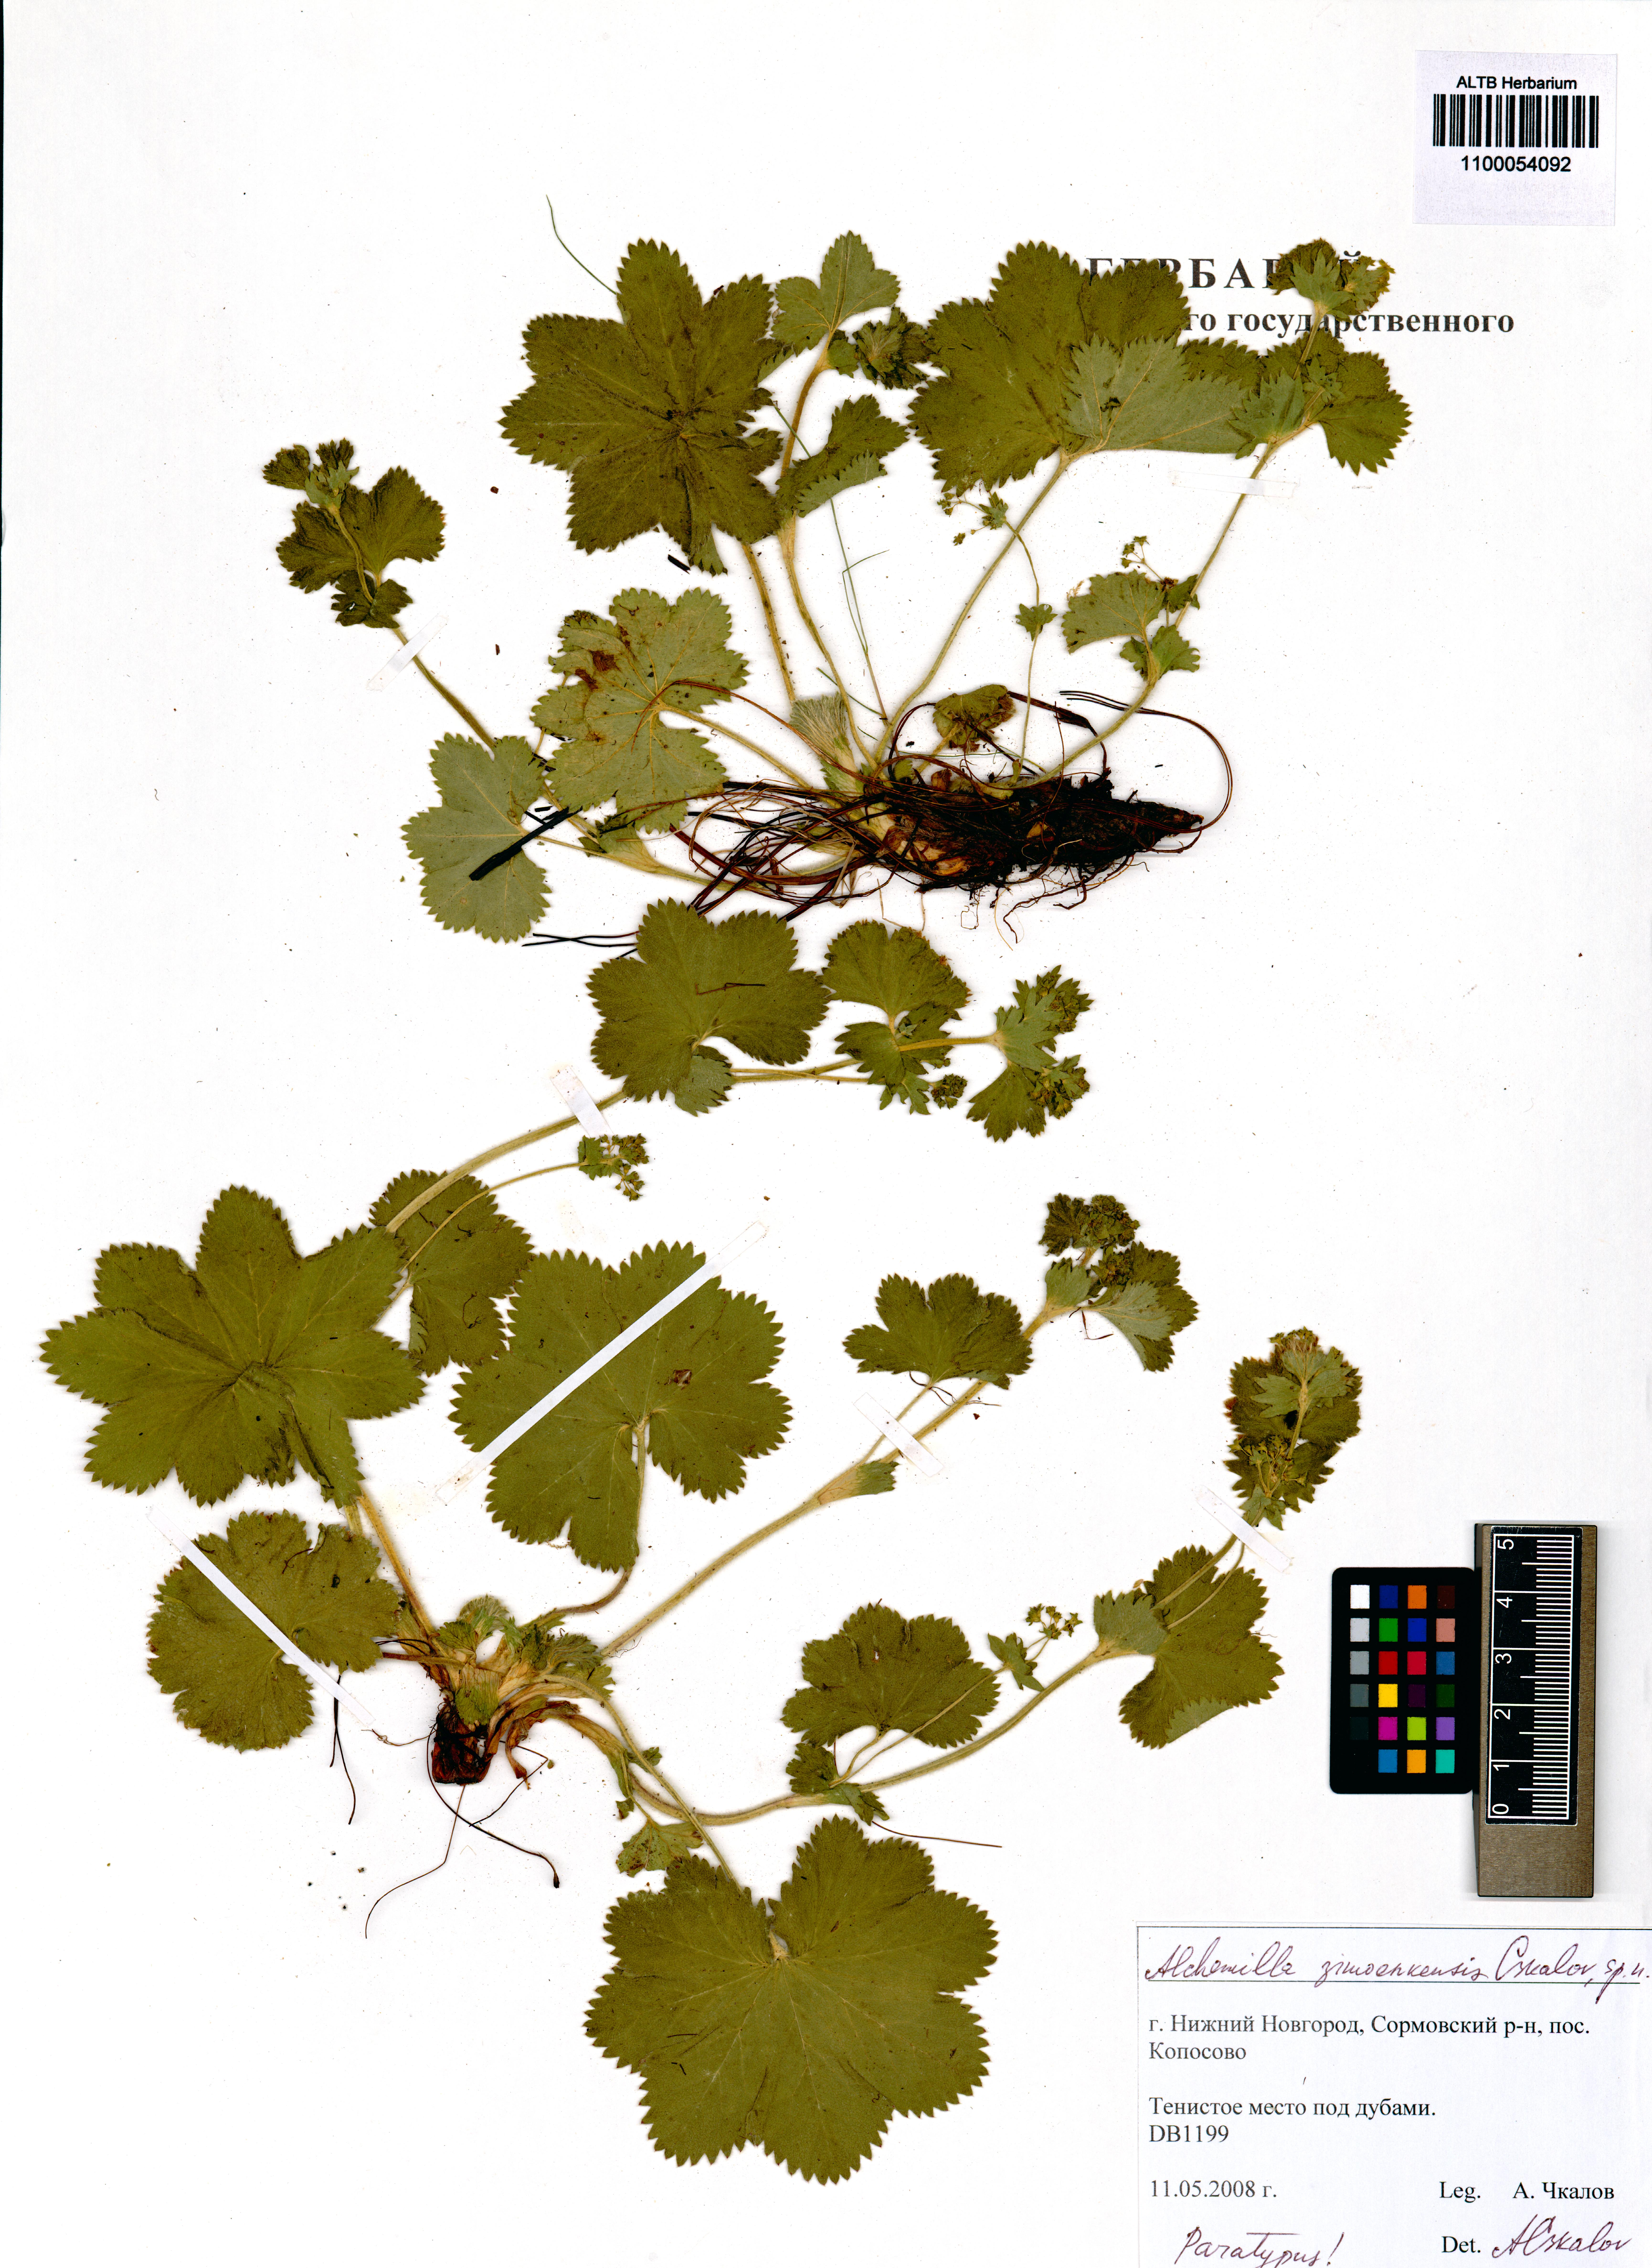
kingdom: Plantae
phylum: Tracheophyta
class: Magnoliopsida
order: Rosales
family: Rosaceae
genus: Alchemilla
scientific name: Alchemilla zimoenkensis
